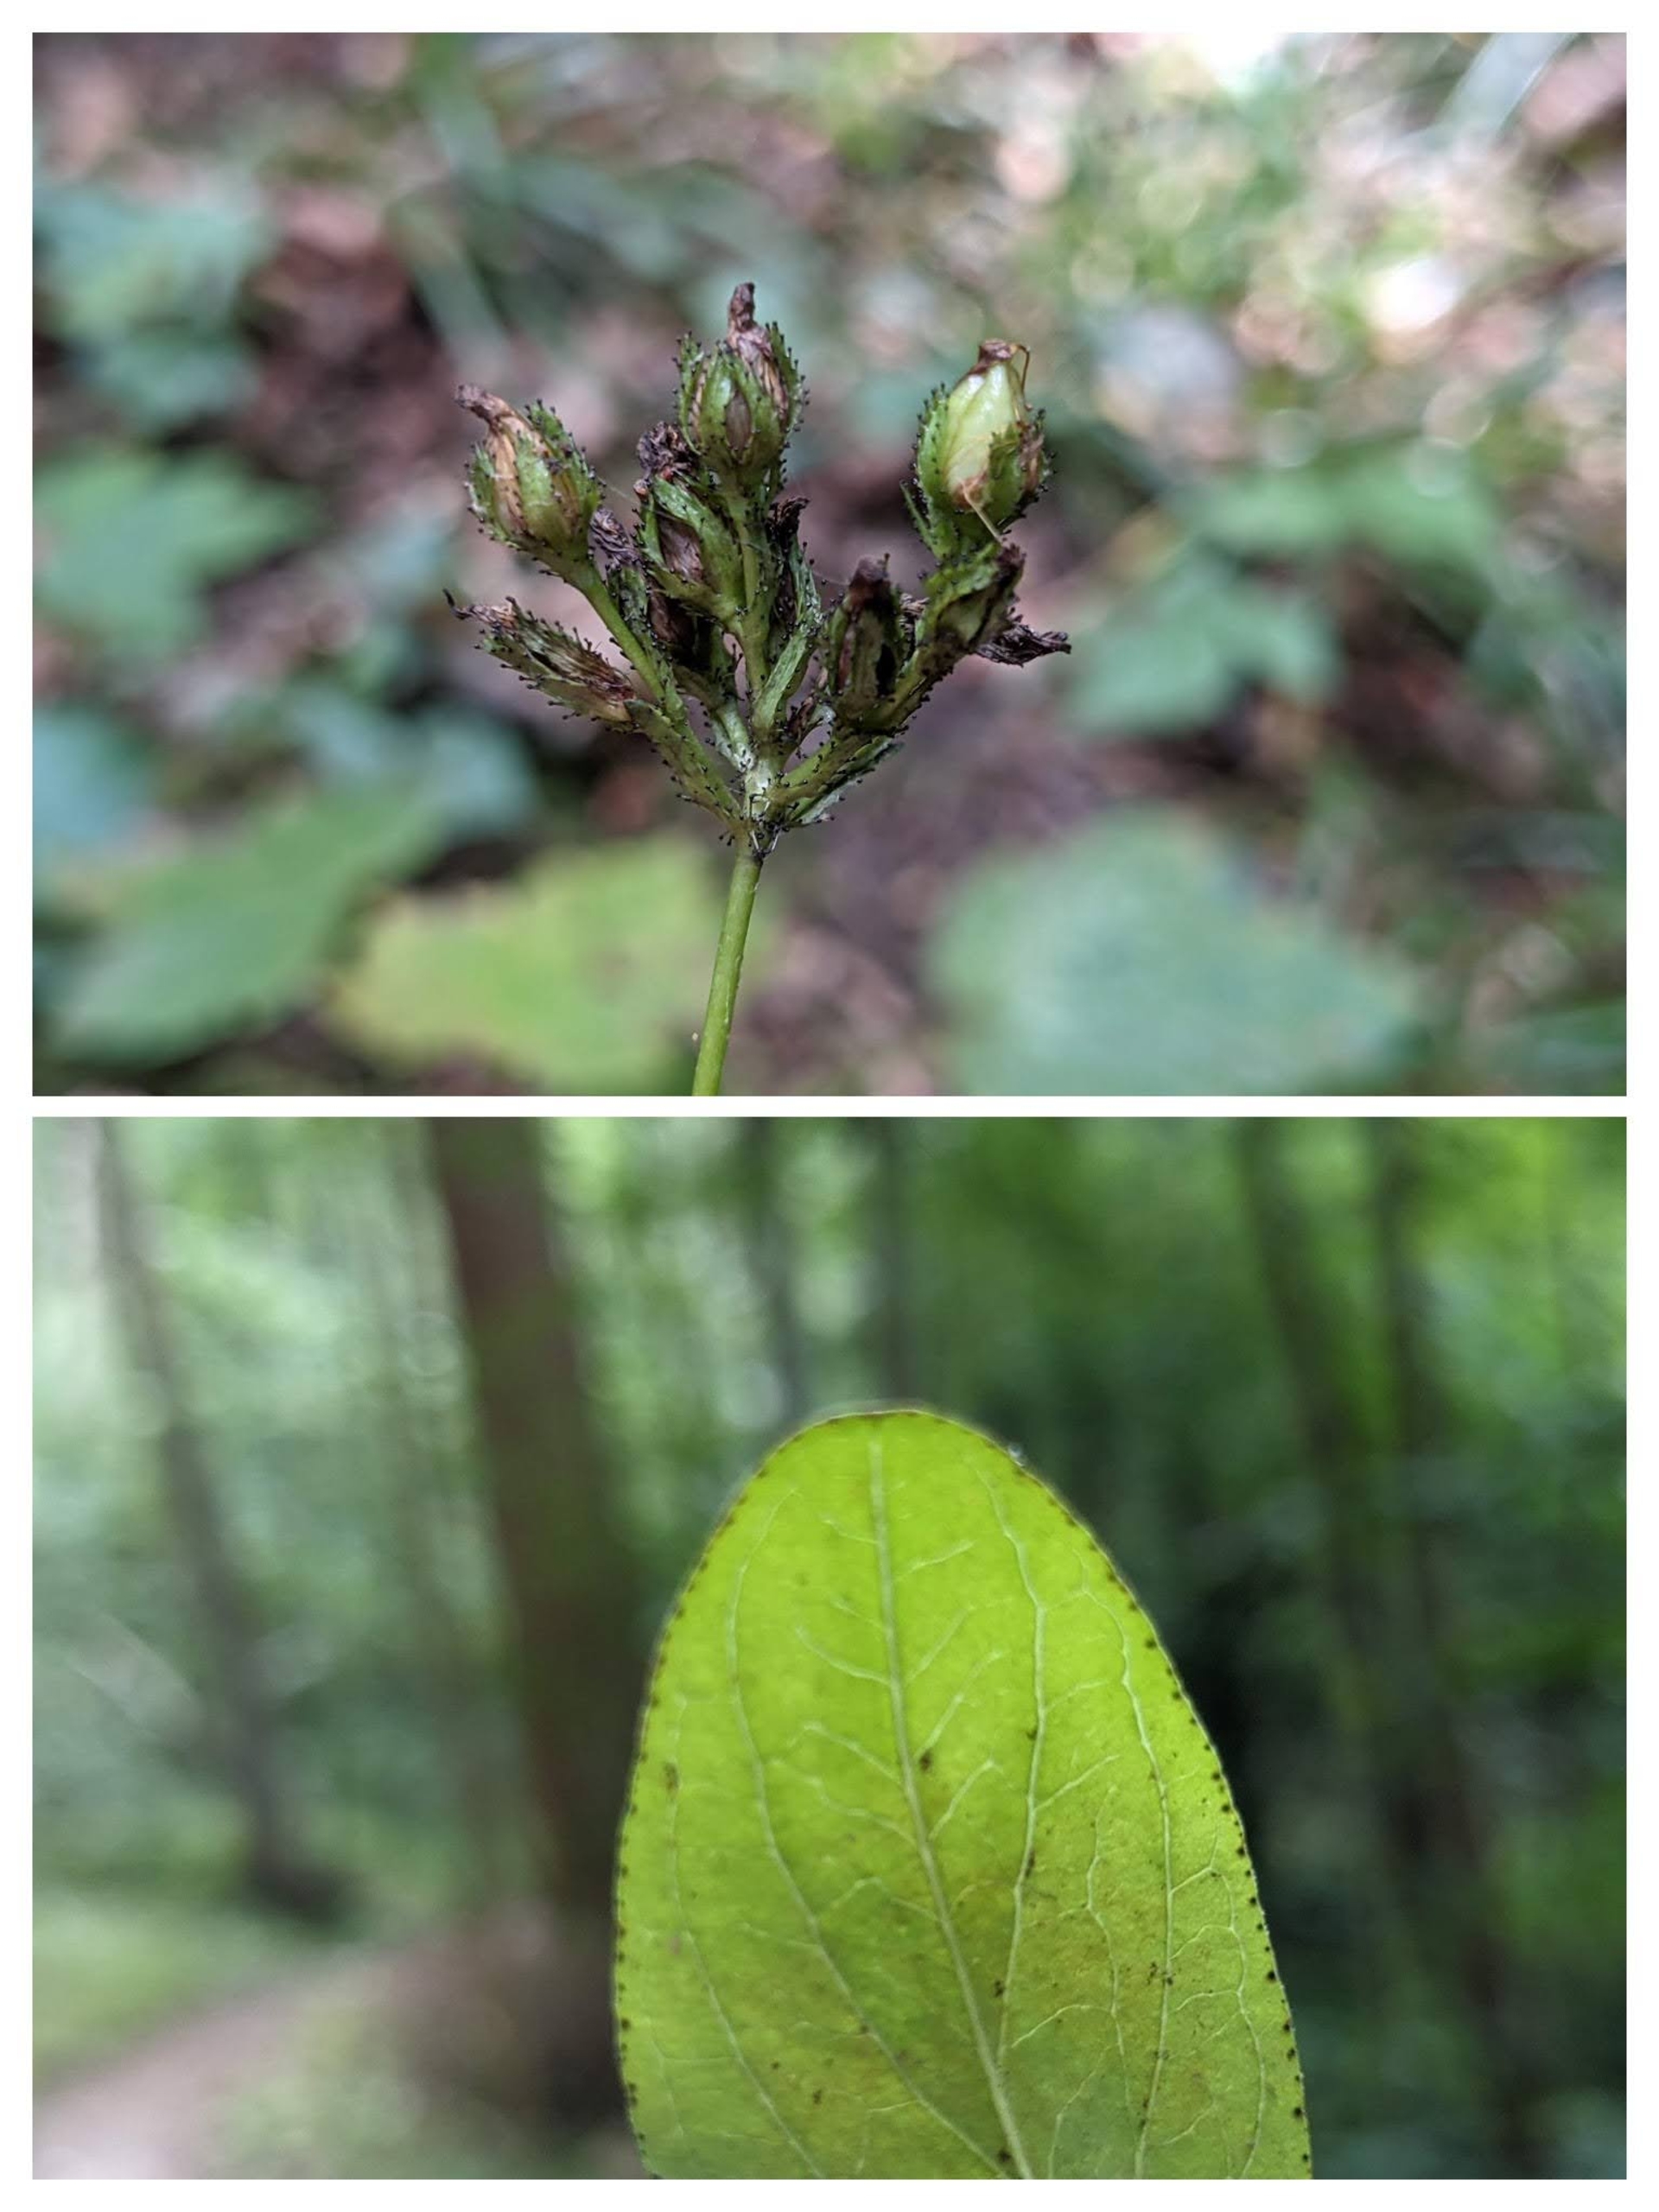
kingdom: Plantae
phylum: Tracheophyta
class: Magnoliopsida
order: Malpighiales
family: Hypericaceae
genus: Hypericum
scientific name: Hypericum montanum
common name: Bjerg-perikon
